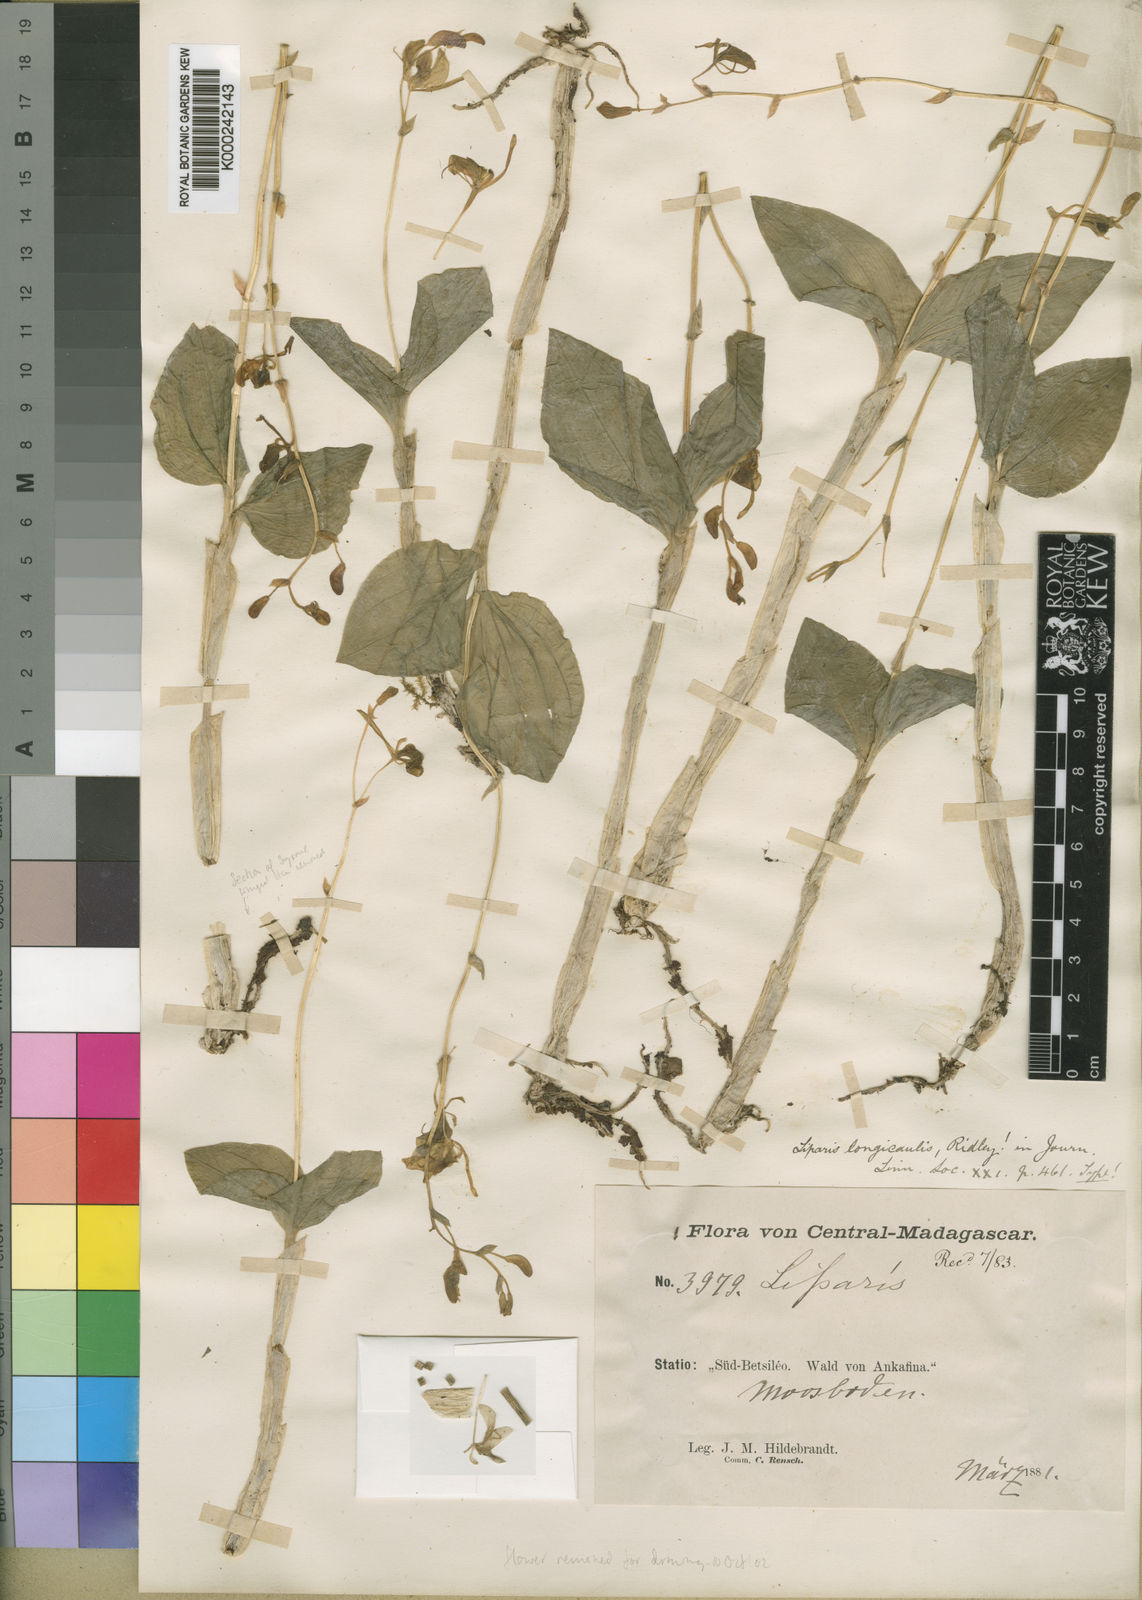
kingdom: Plantae
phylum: Tracheophyta
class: Liliopsida
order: Asparagales
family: Orchidaceae
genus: Liparis
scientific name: Liparis longicaulis
